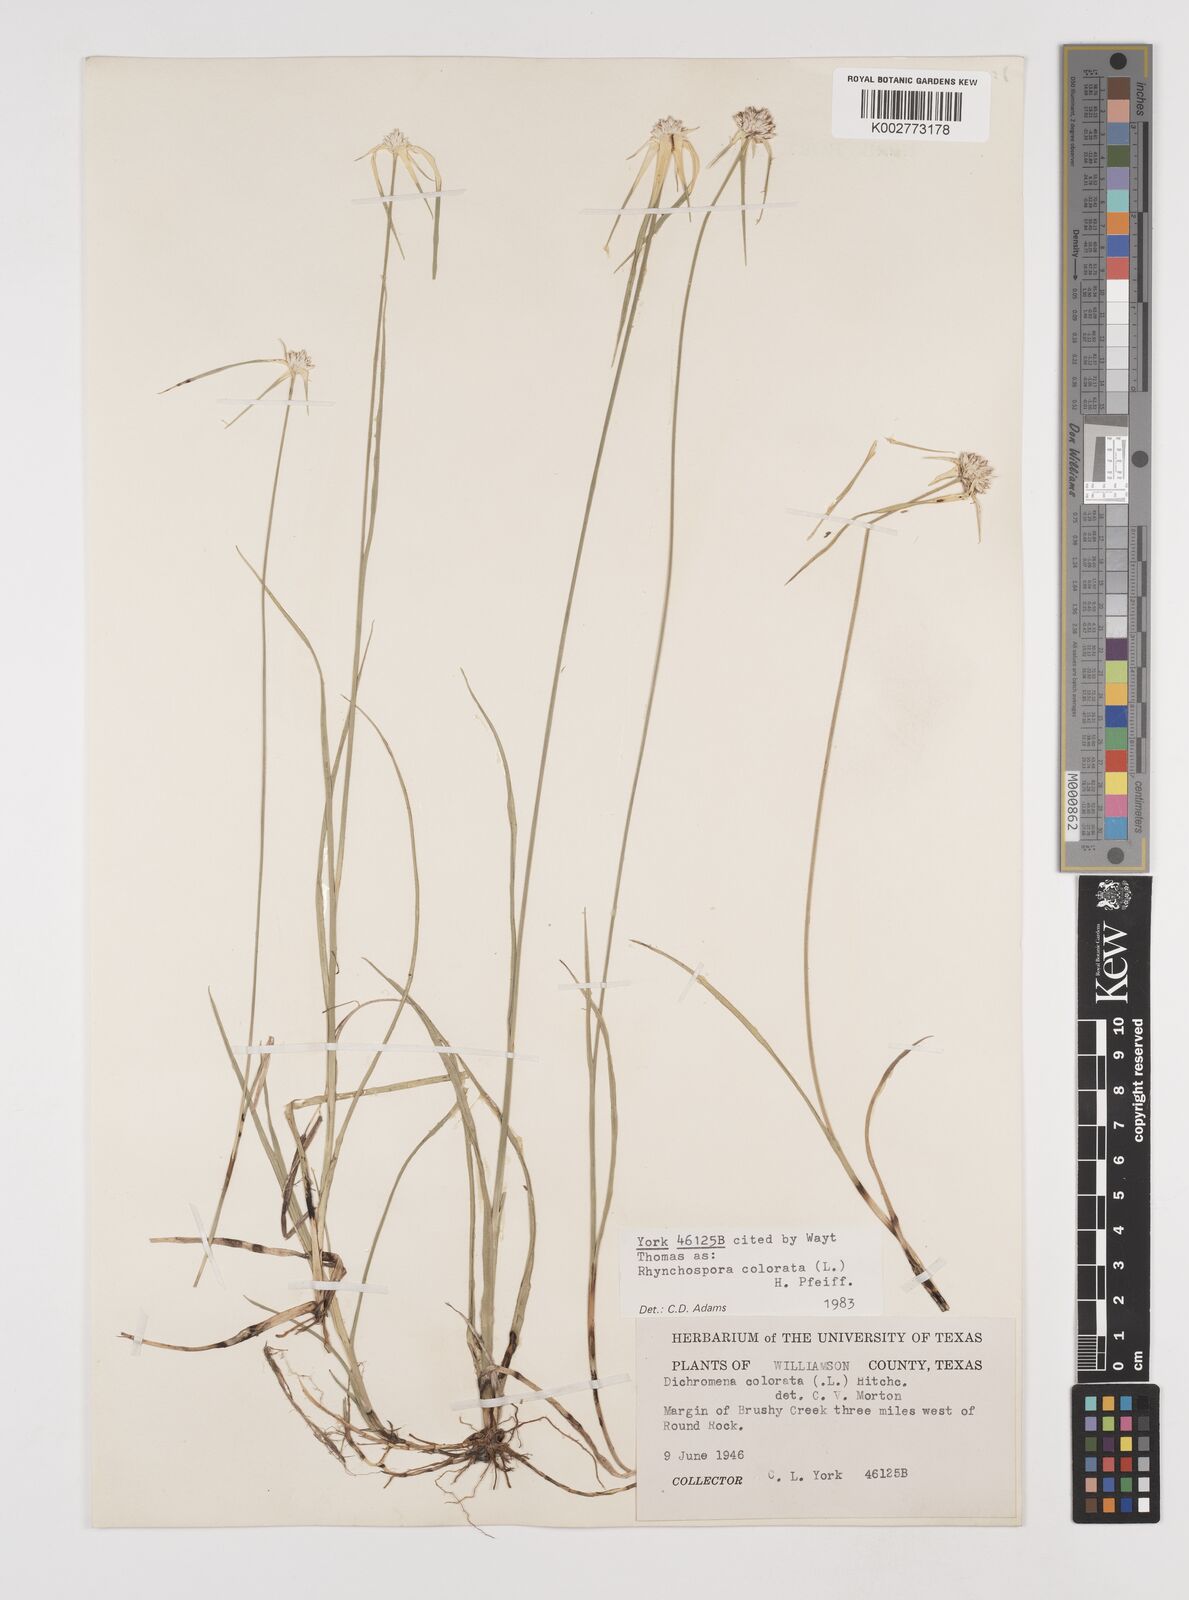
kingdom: Plantae
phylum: Tracheophyta
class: Liliopsida
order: Poales
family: Cyperaceae
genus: Rhynchospora
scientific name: Rhynchospora colorata
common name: Star sedge
